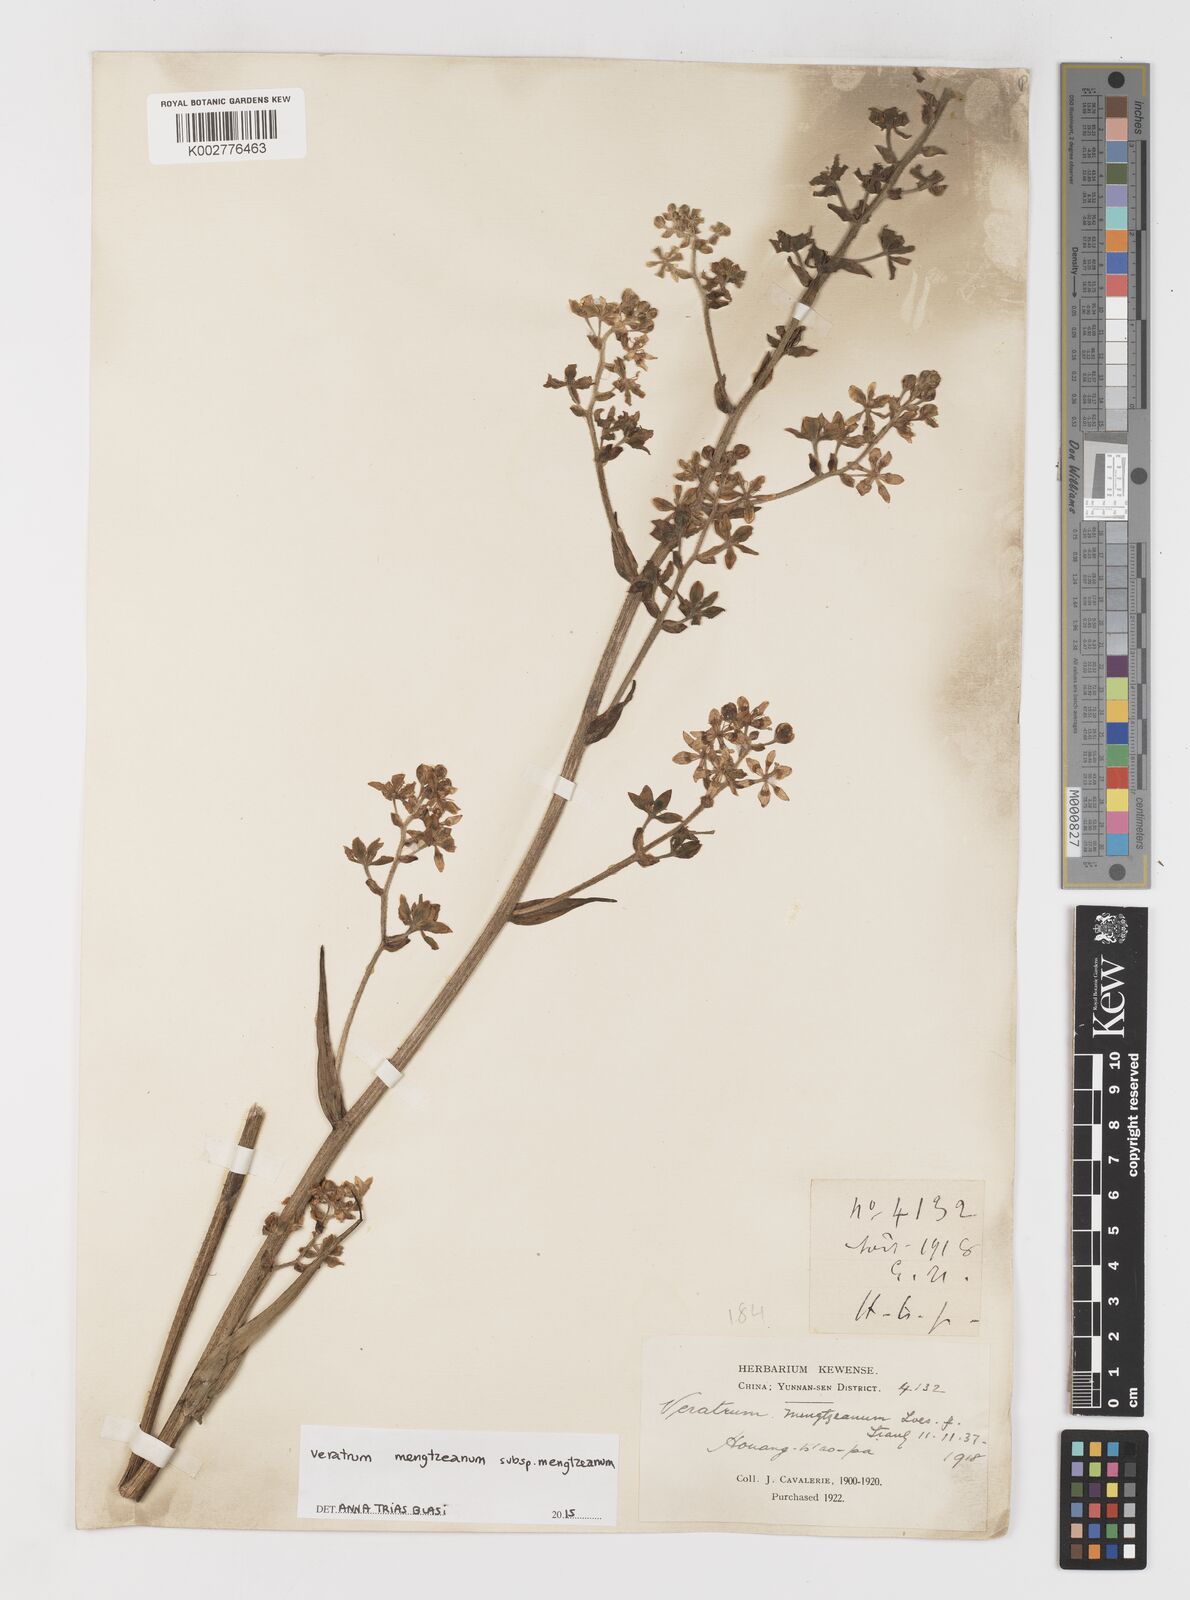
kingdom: Plantae
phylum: Tracheophyta
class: Liliopsida
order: Liliales
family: Melanthiaceae
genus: Veratrum
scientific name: Veratrum mengtzeanum
